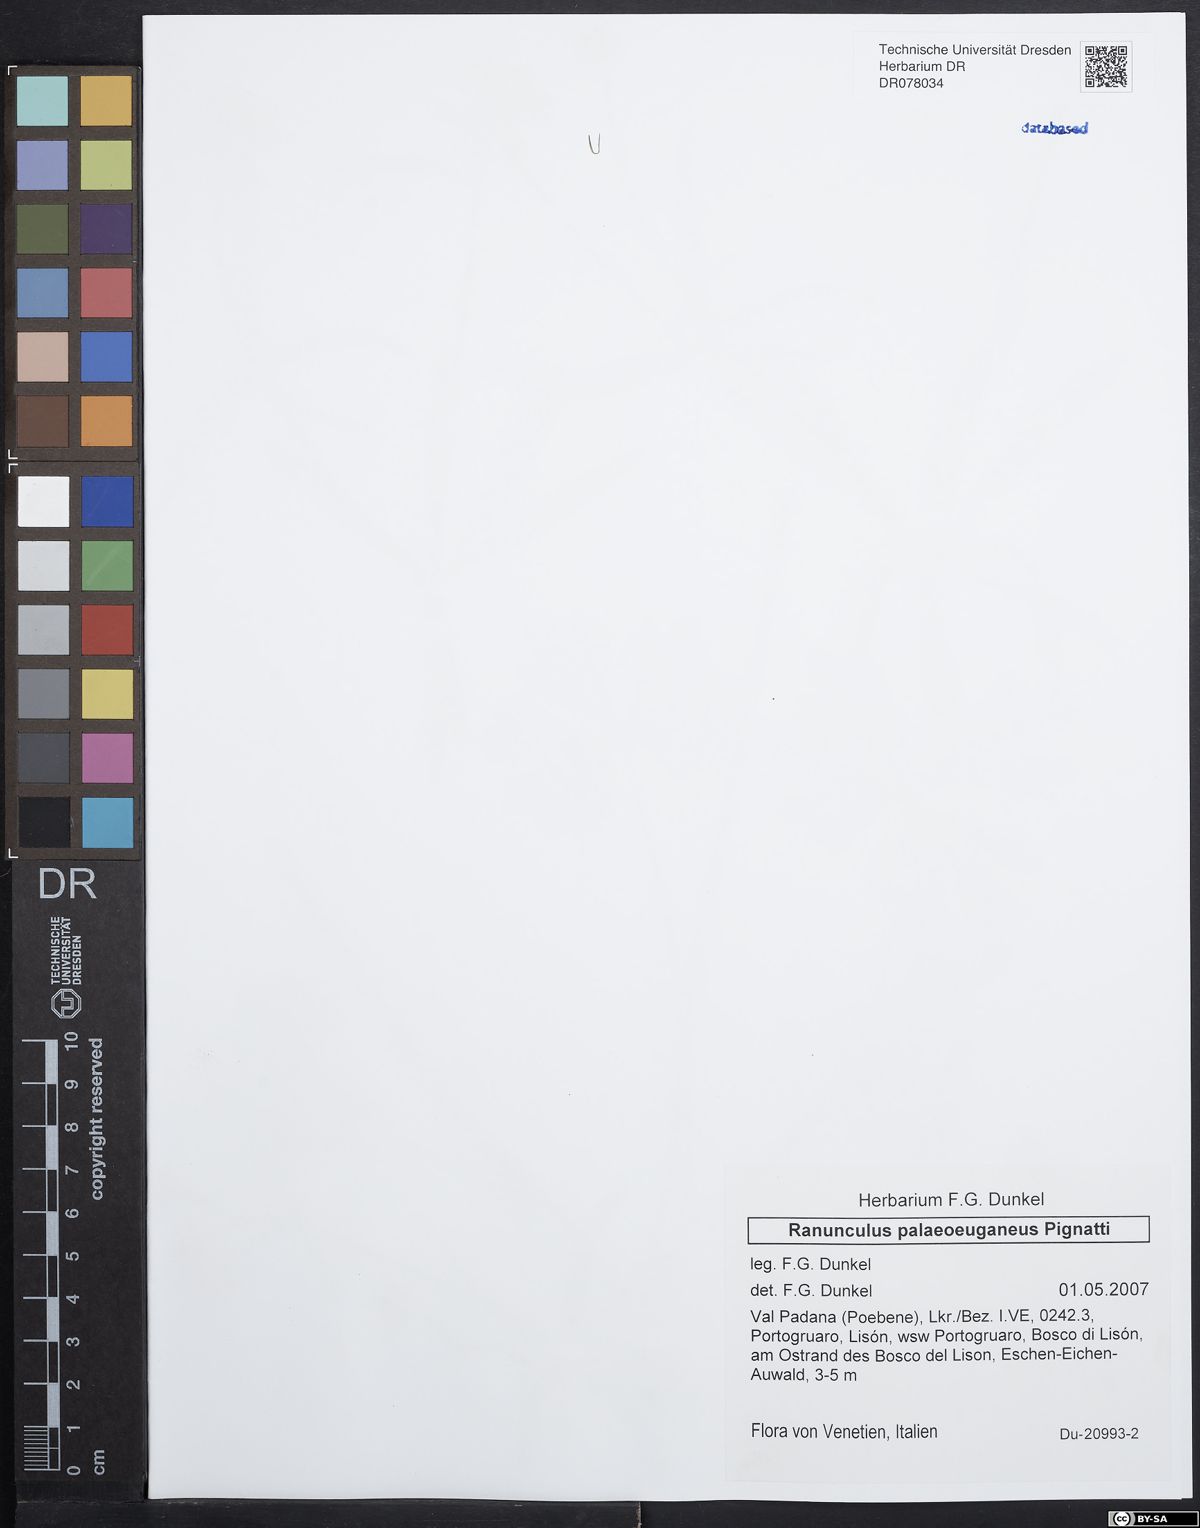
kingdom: Plantae
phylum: Tracheophyta
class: Magnoliopsida
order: Ranunculales
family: Ranunculaceae
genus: Ranunculus
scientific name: Ranunculus palaeoeuganeus
